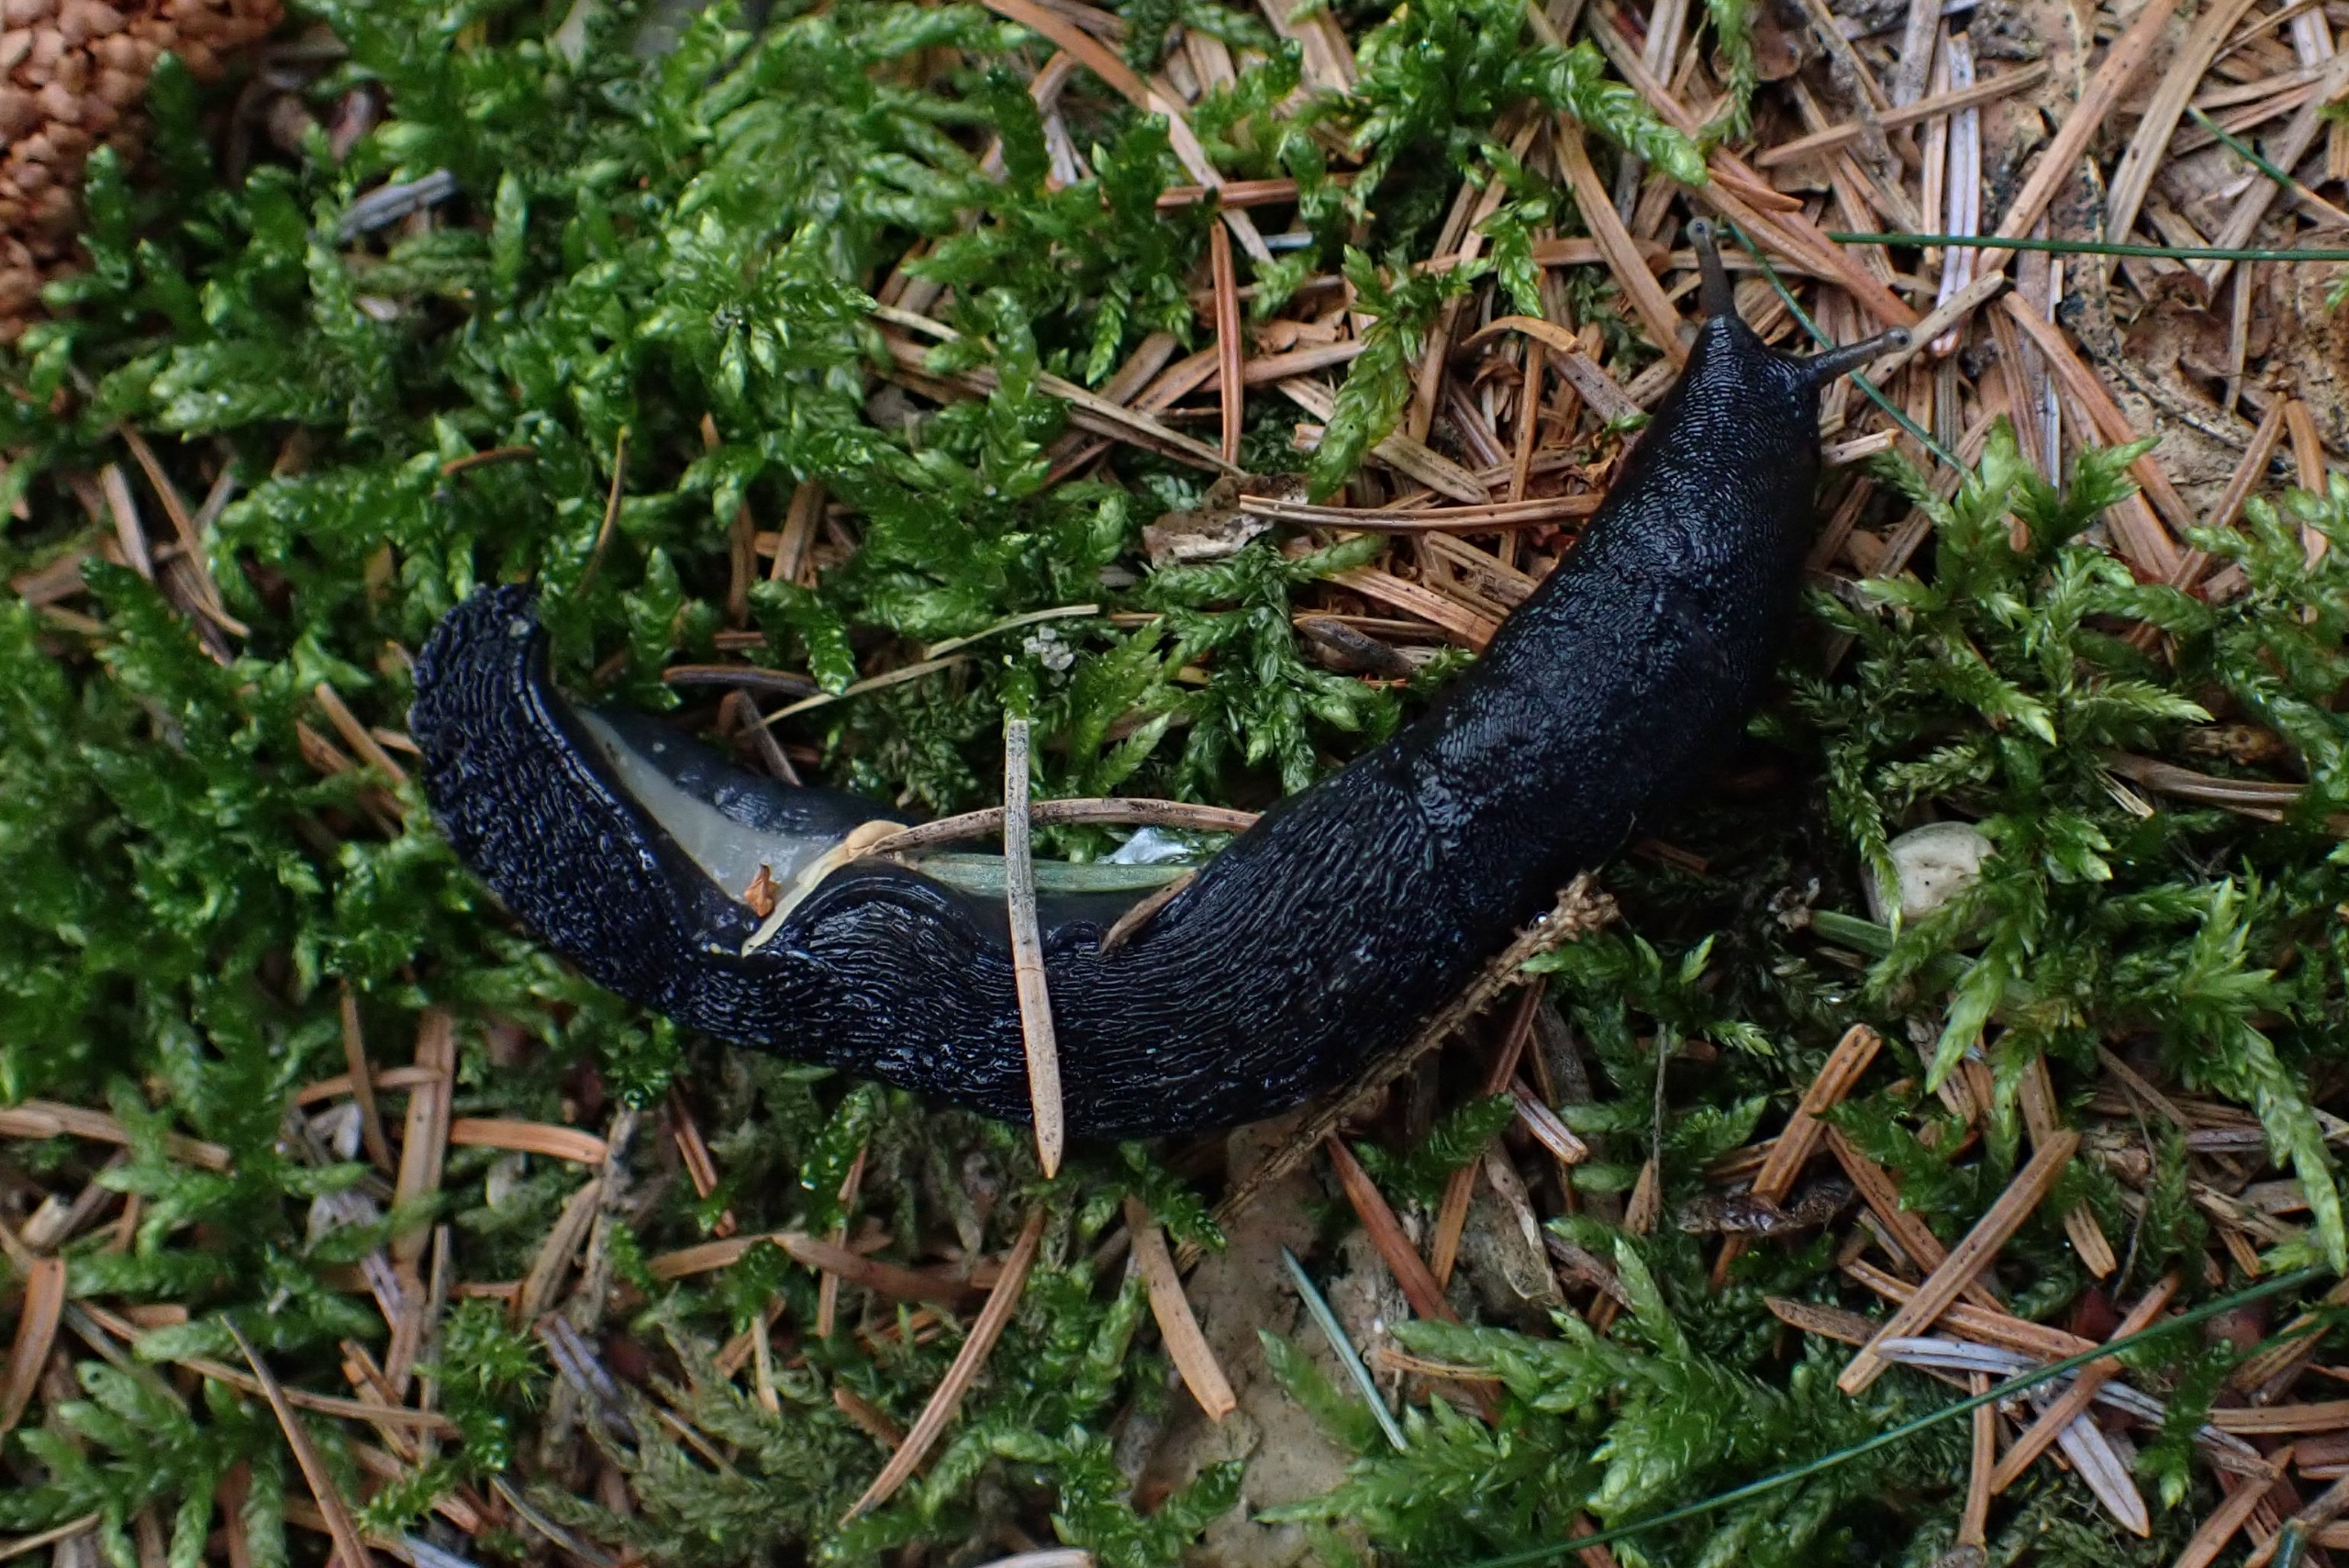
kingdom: Animalia
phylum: Mollusca
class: Gastropoda
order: Stylommatophora
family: Limacidae
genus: Limax
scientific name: Limax cinereoniger
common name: Skovpantersnegl
